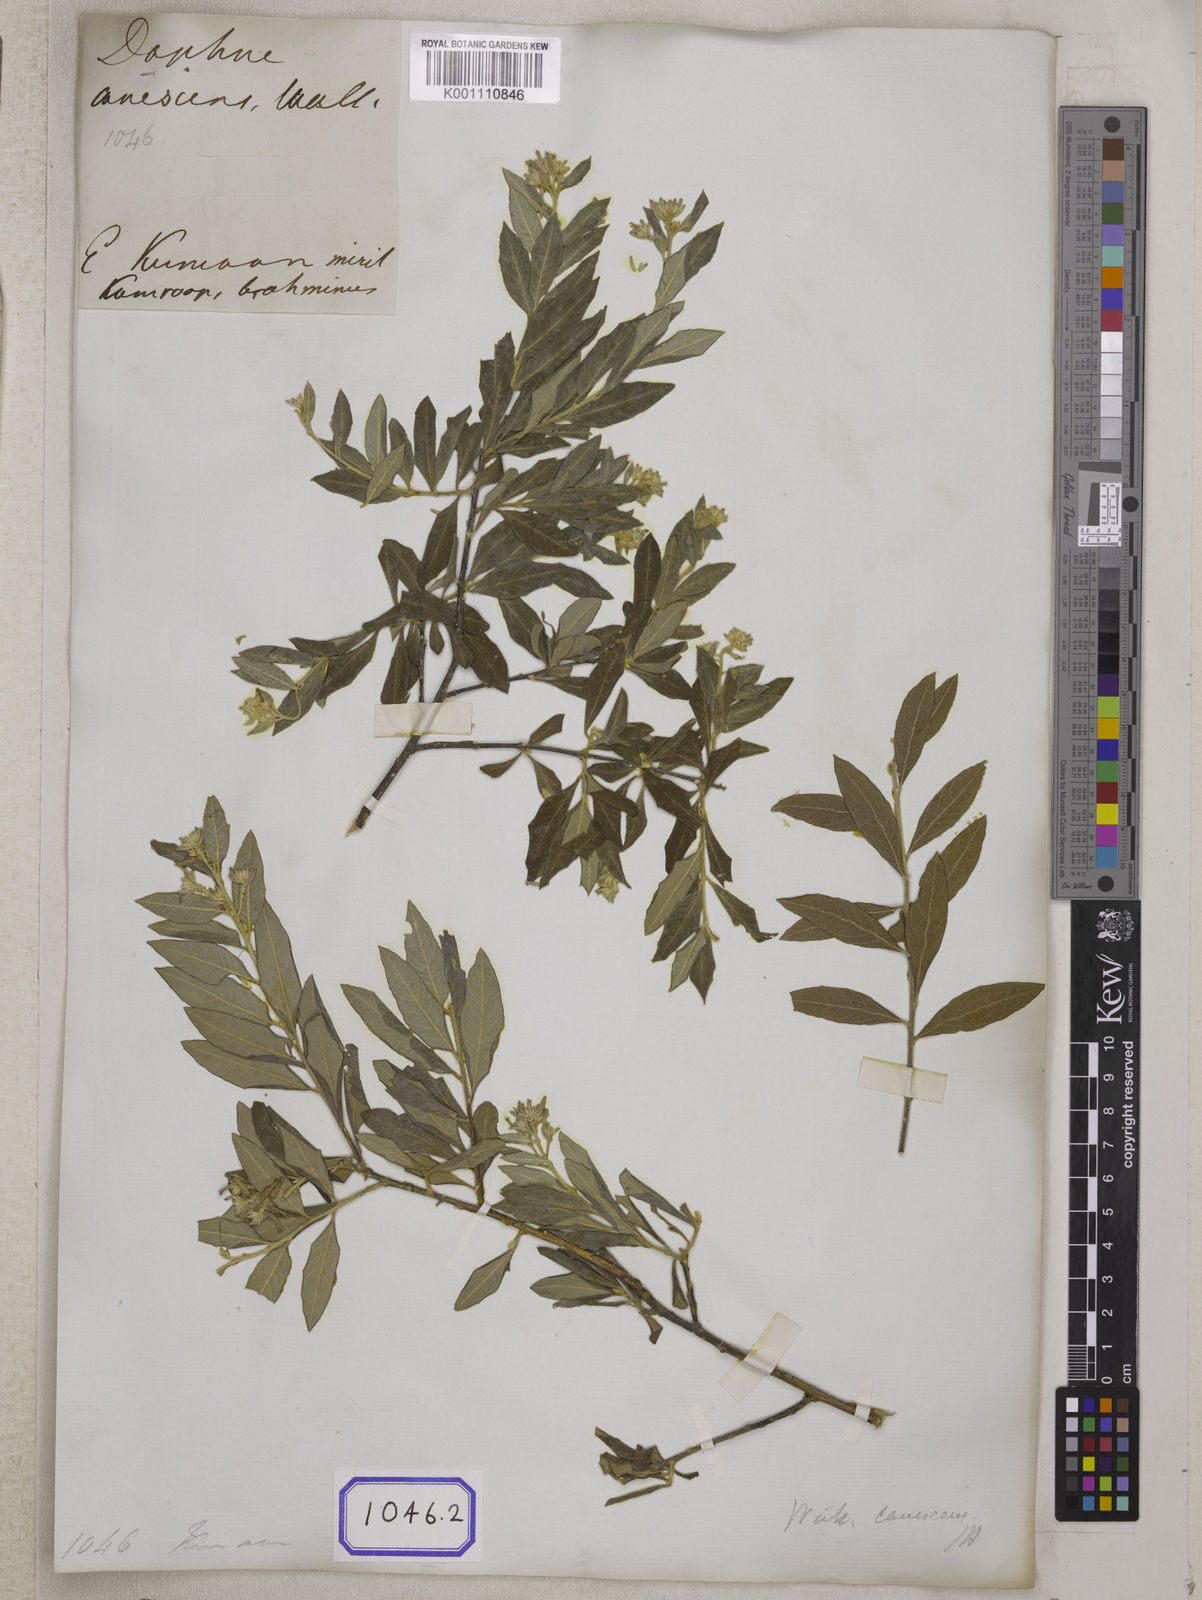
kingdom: Plantae
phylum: Tracheophyta
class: Magnoliopsida
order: Malvales
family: Thymelaeaceae
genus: Daphne
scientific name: Daphne
